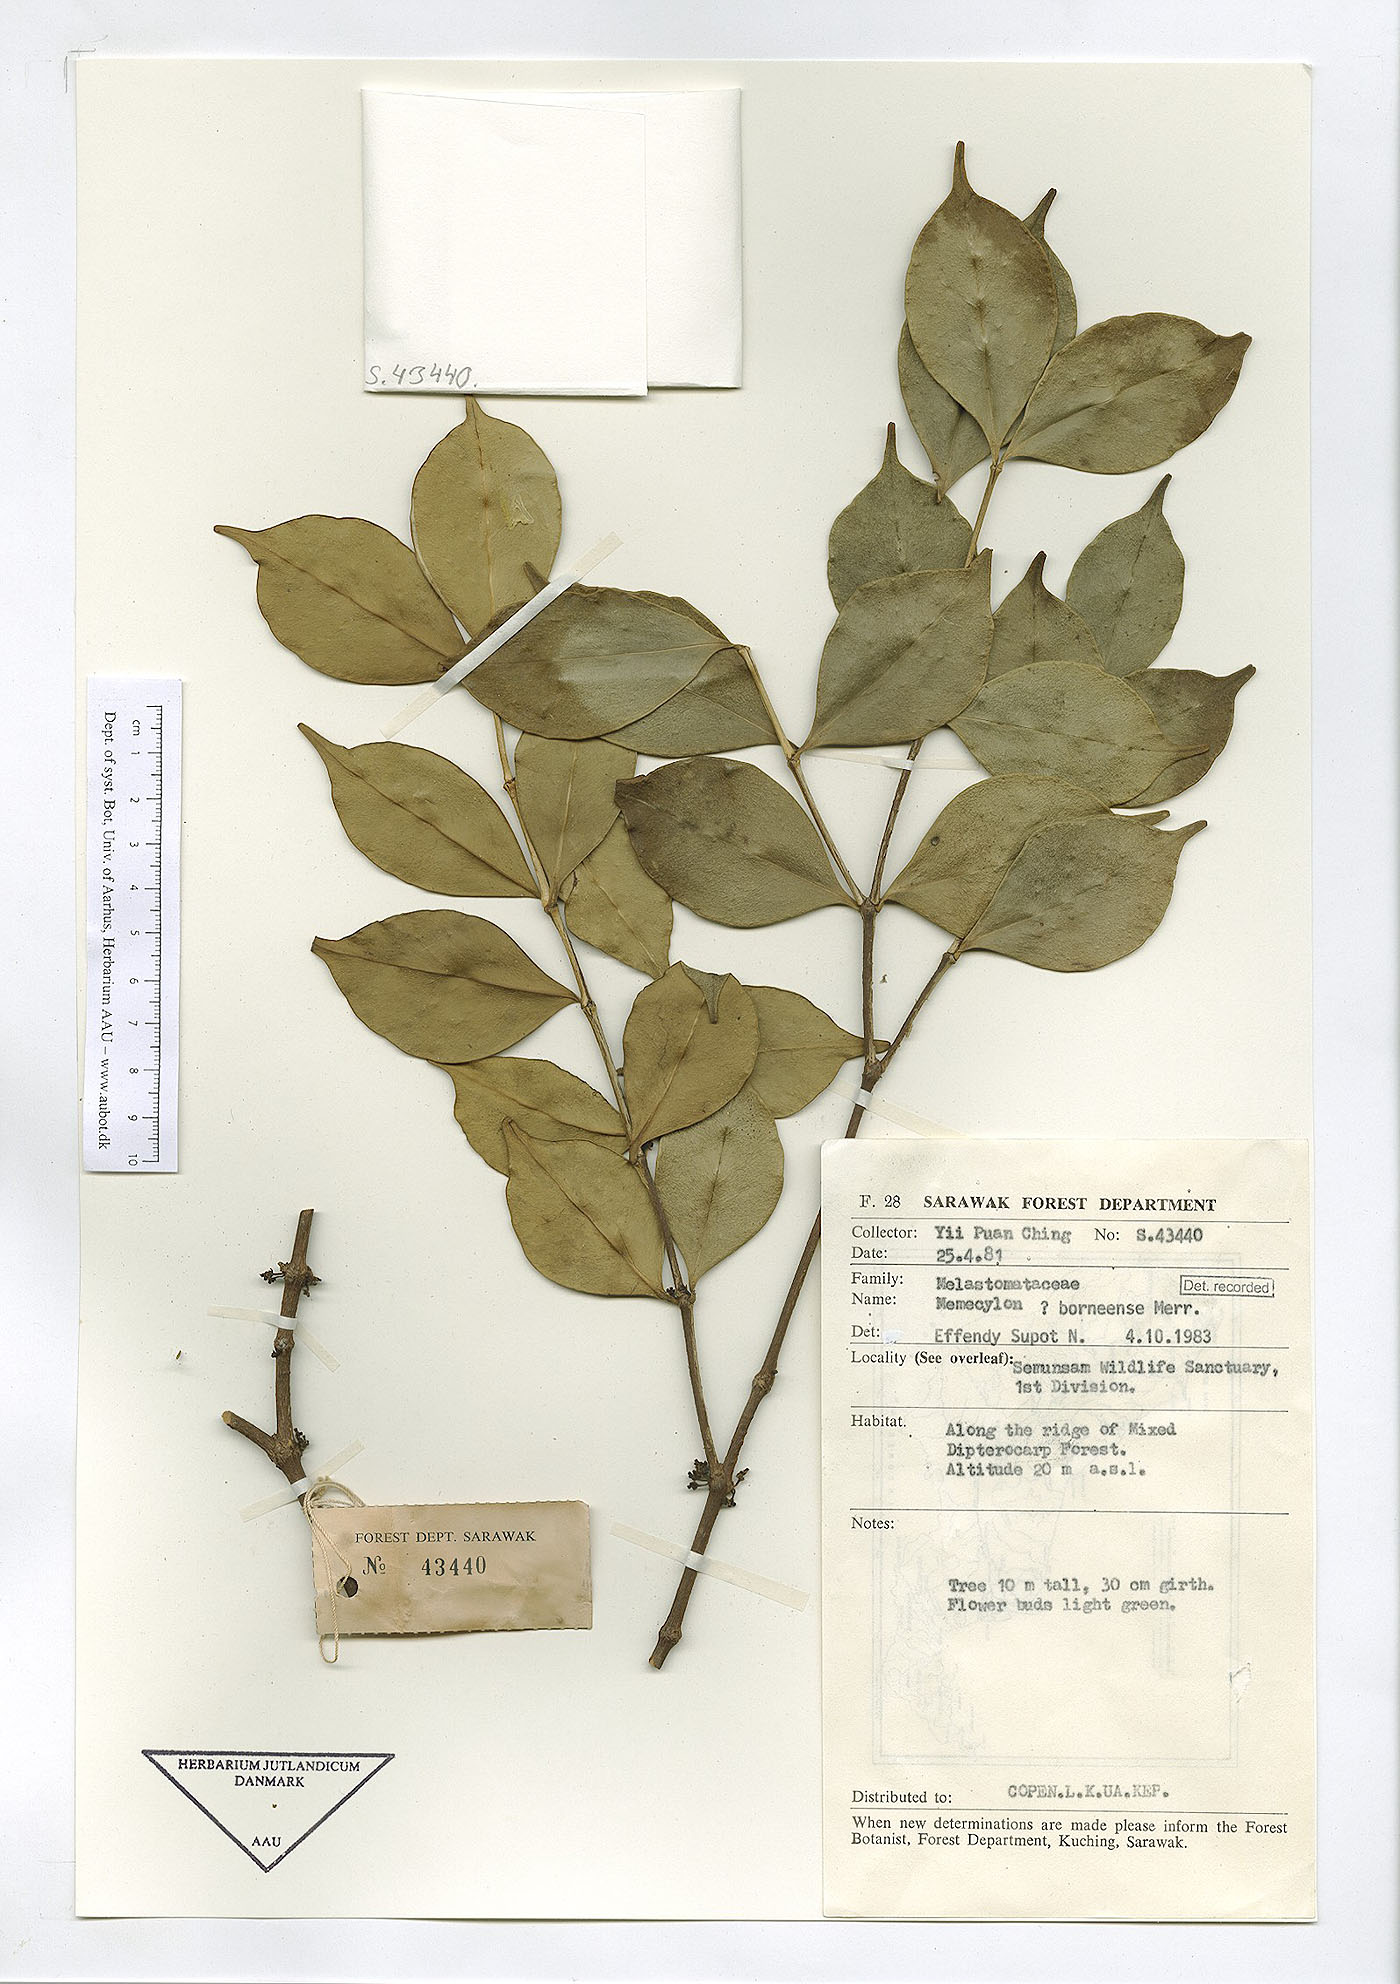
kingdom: Plantae
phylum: Tracheophyta
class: Magnoliopsida
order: Myrtales
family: Melastomataceae
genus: Memecylon
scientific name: Memecylon borneense
